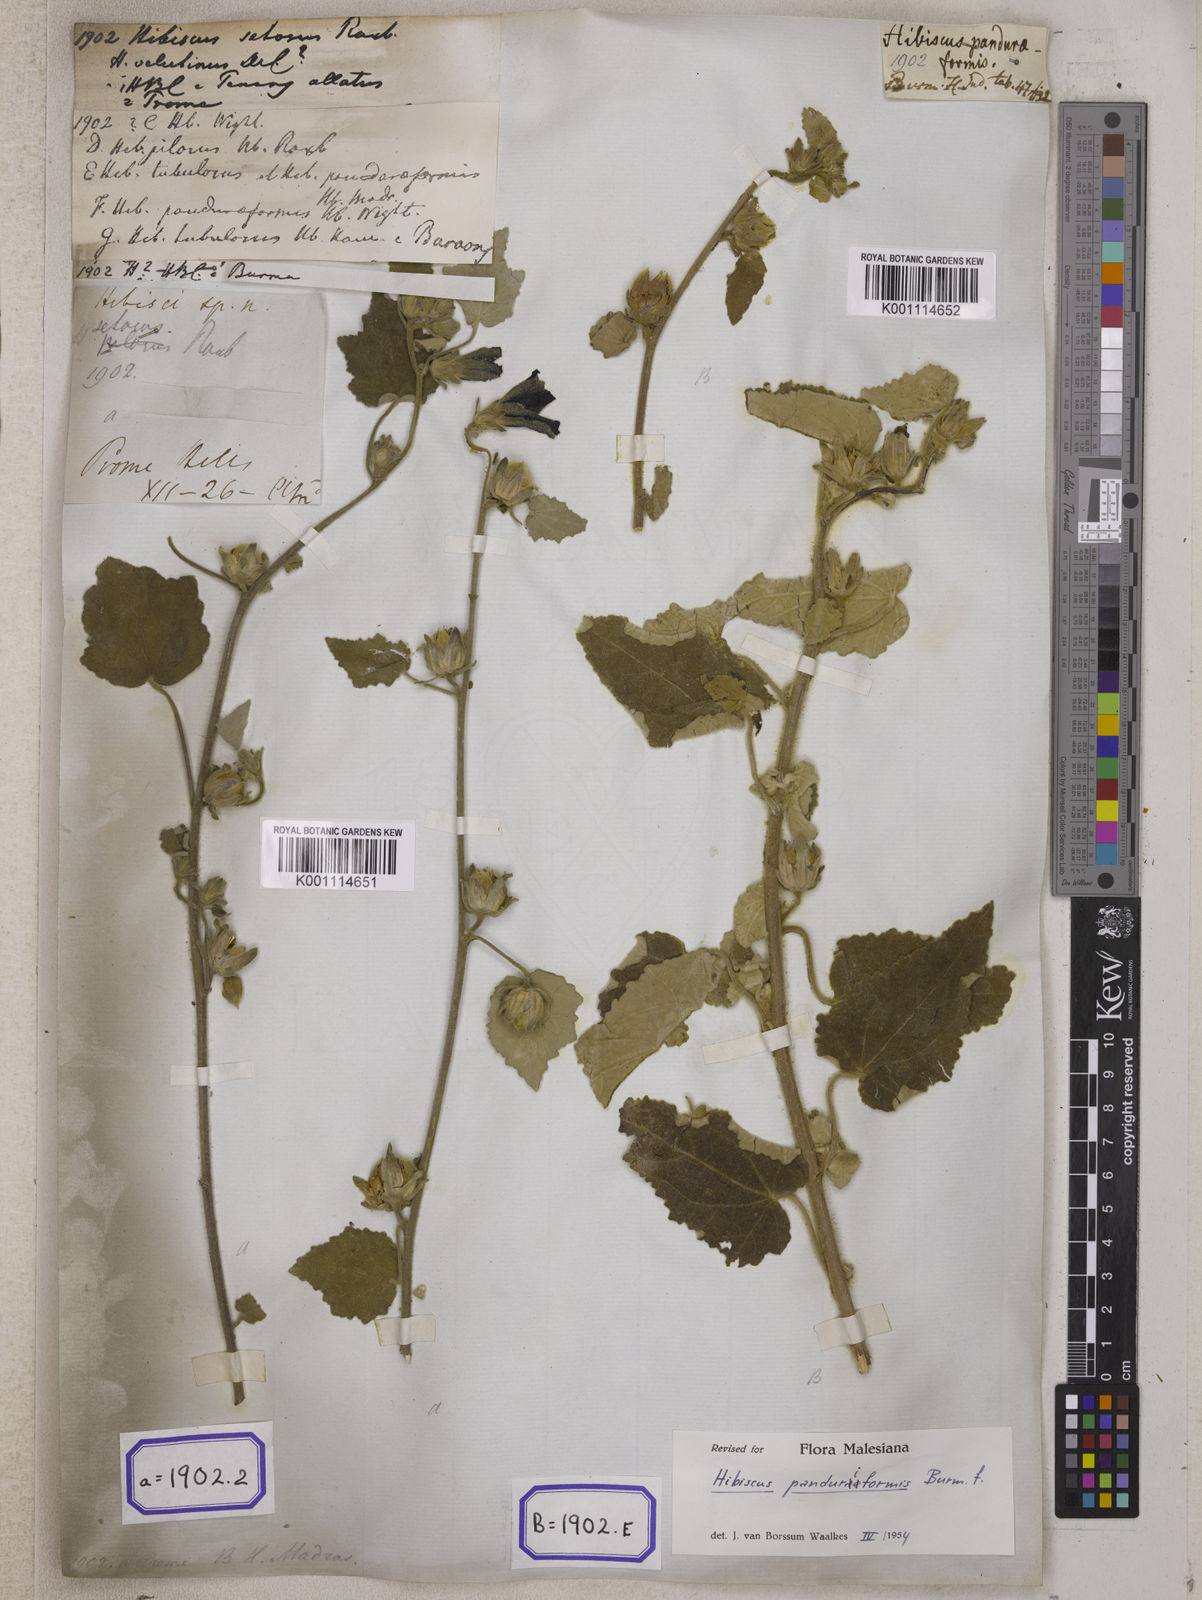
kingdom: Plantae
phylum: Tracheophyta
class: Magnoliopsida
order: Malvales
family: Malvaceae
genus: Talipariti
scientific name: Talipariti macrophyllum
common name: Largeleaf rosemallow
